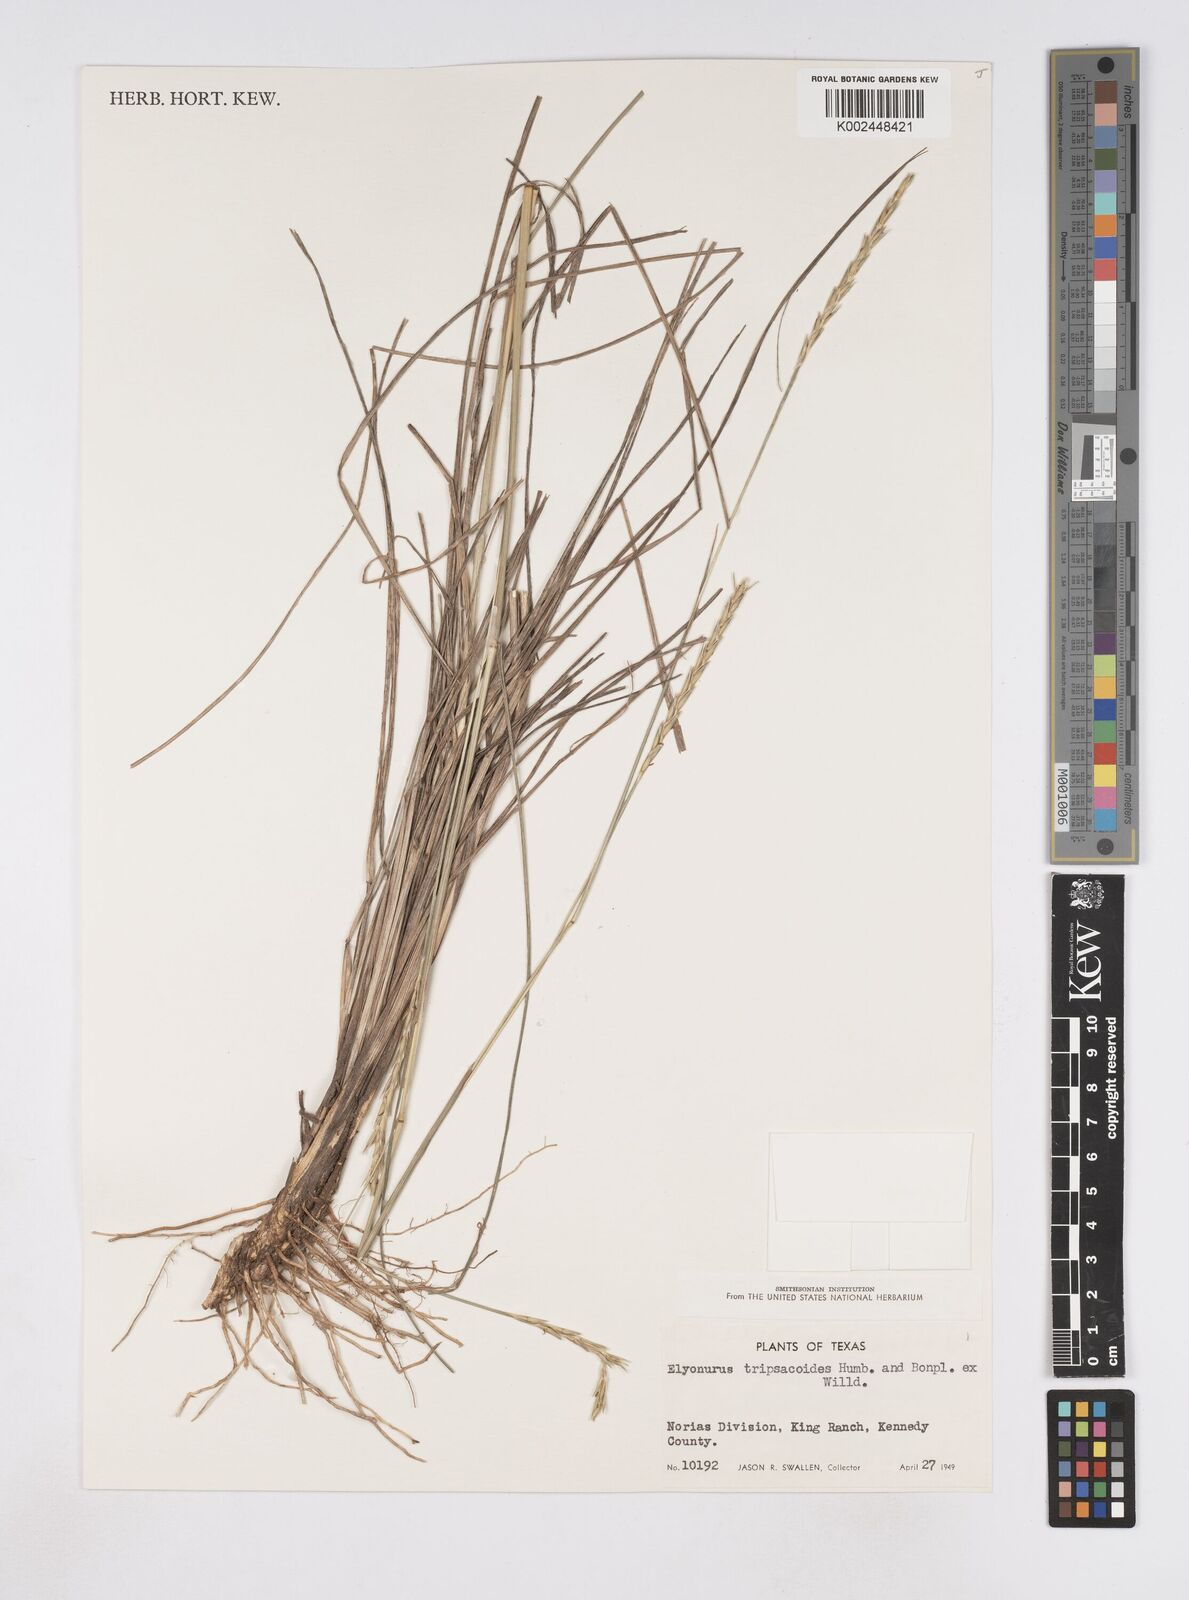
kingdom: Plantae
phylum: Tracheophyta
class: Liliopsida
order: Poales
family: Poaceae
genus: Elionurus
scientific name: Elionurus tripsacoides
